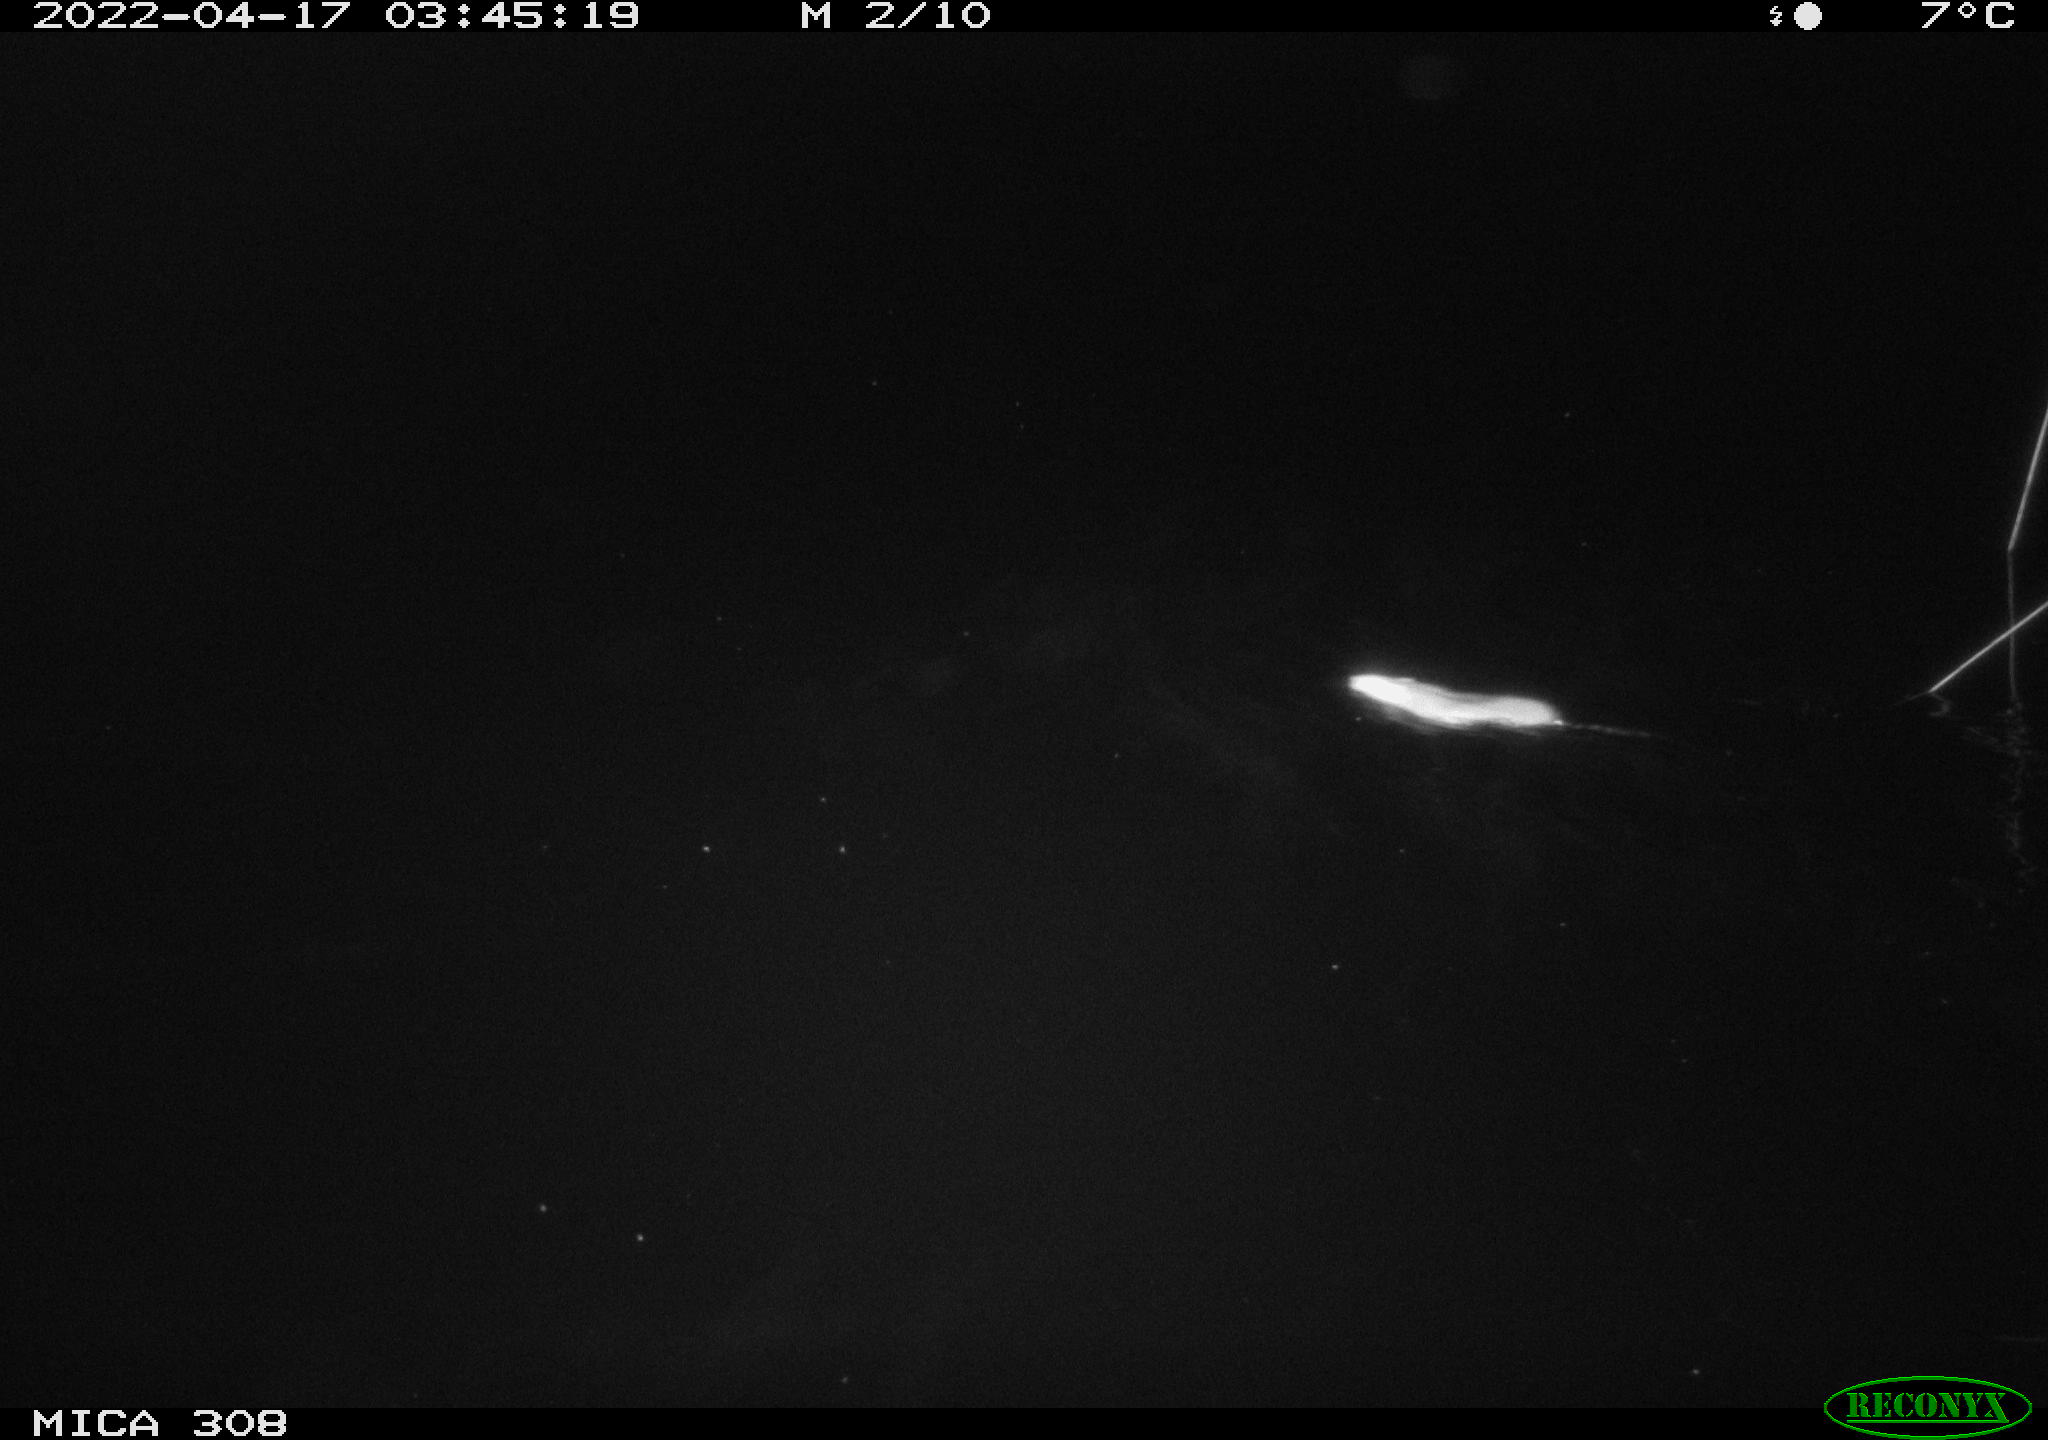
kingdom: Animalia
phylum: Chordata
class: Mammalia
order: Rodentia
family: Muridae
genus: Rattus
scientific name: Rattus norvegicus
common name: Brown rat
